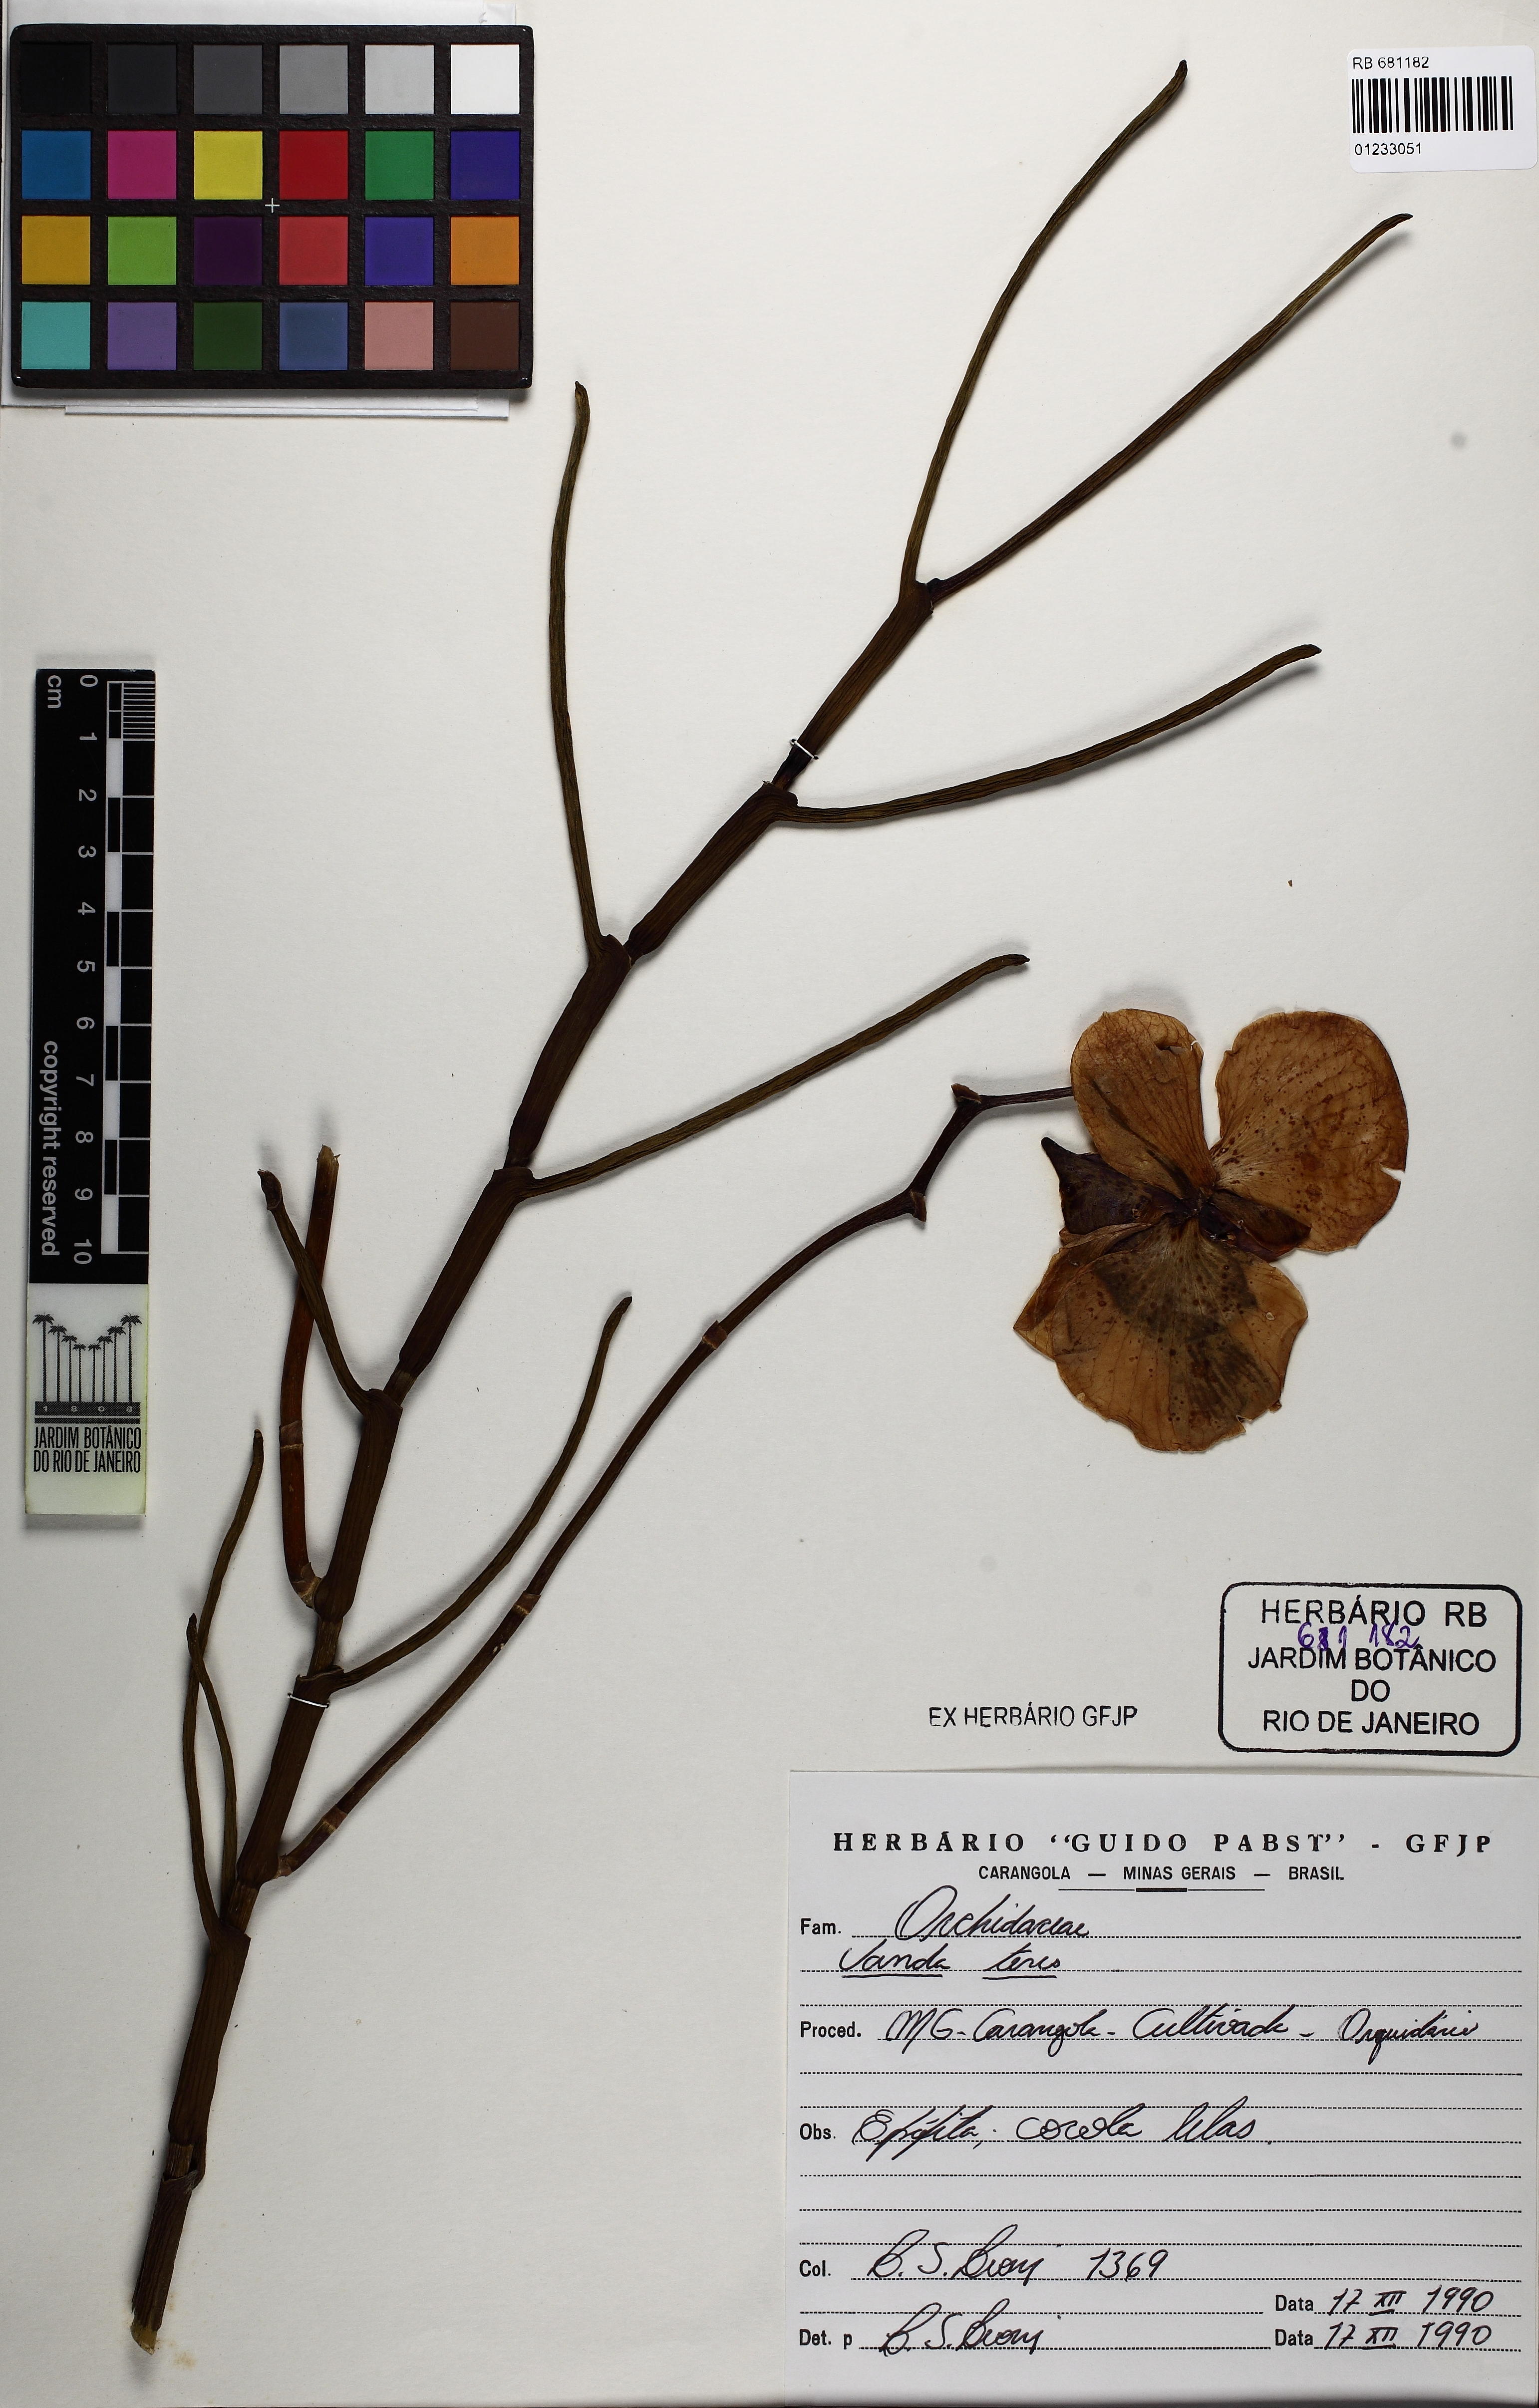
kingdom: Plantae
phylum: Tracheophyta
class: Liliopsida
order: Asparagales
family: Orchidaceae
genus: Papilionanthe
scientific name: Papilionanthe teres
